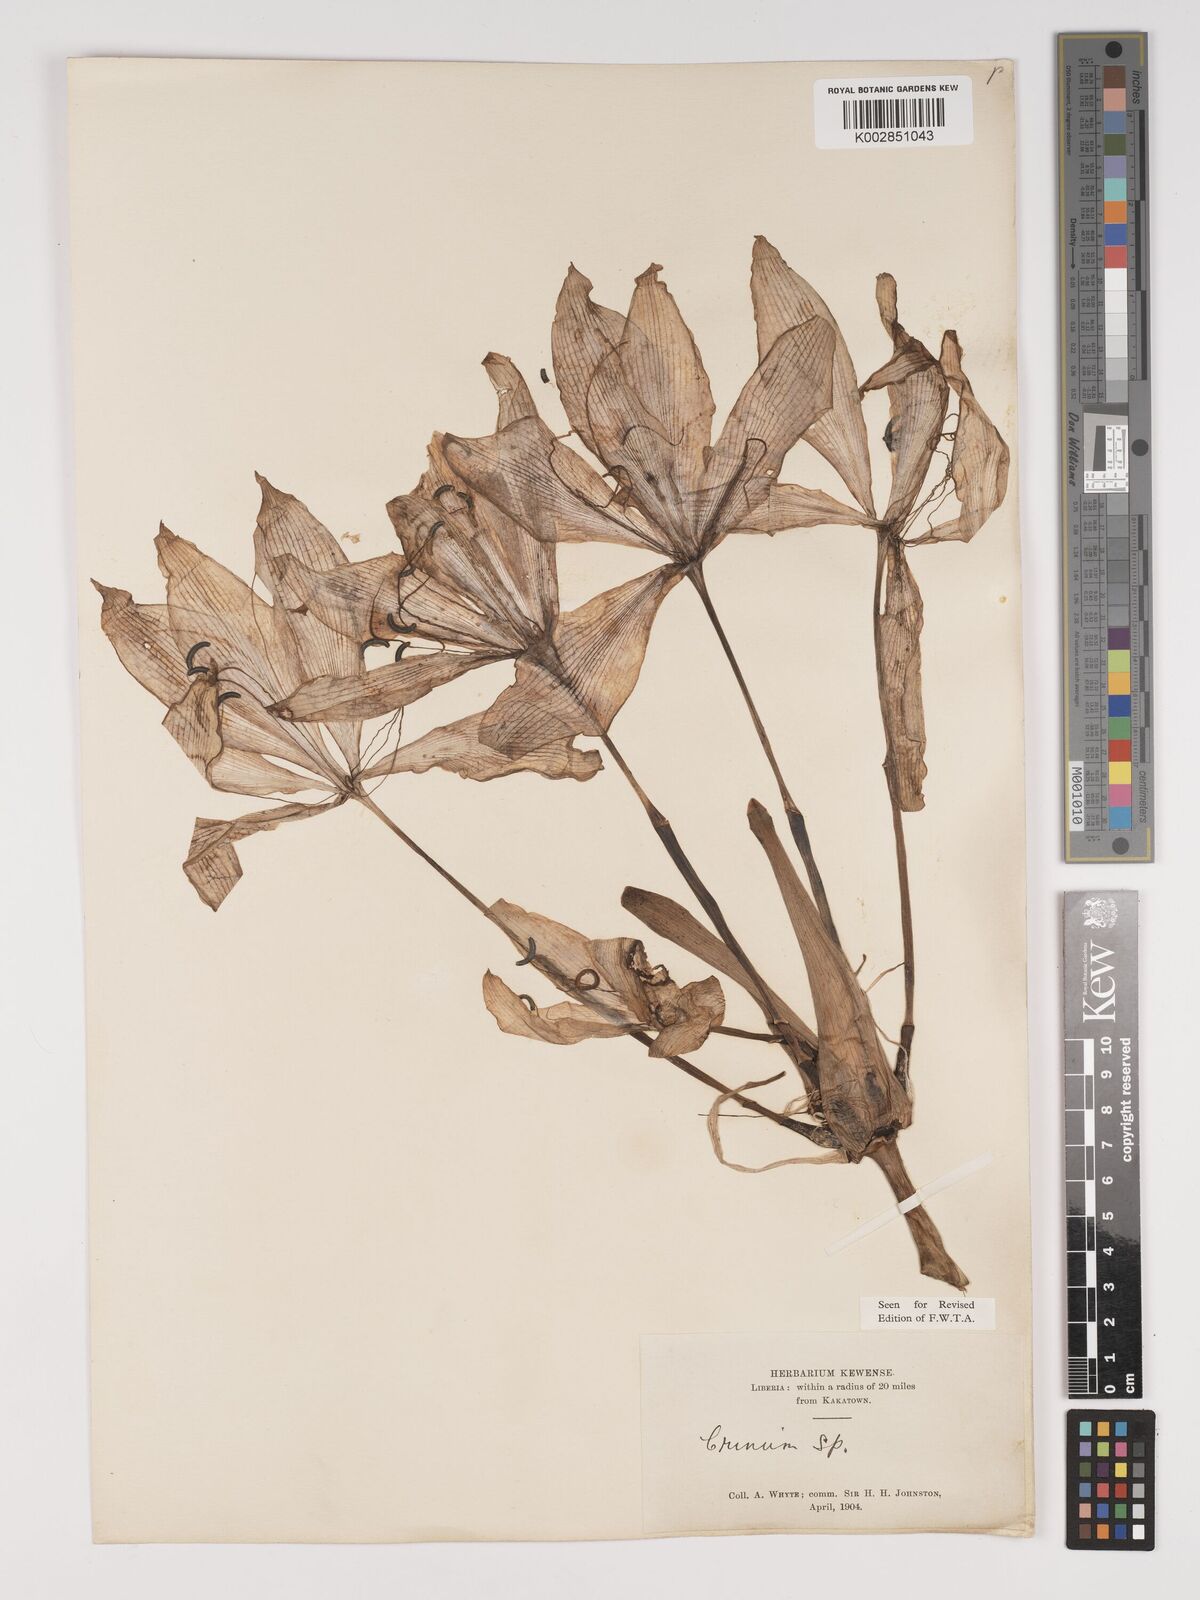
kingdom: Plantae
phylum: Tracheophyta
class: Liliopsida
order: Asparagales
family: Amaryllidaceae
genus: Crinum
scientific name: Crinum jagus
